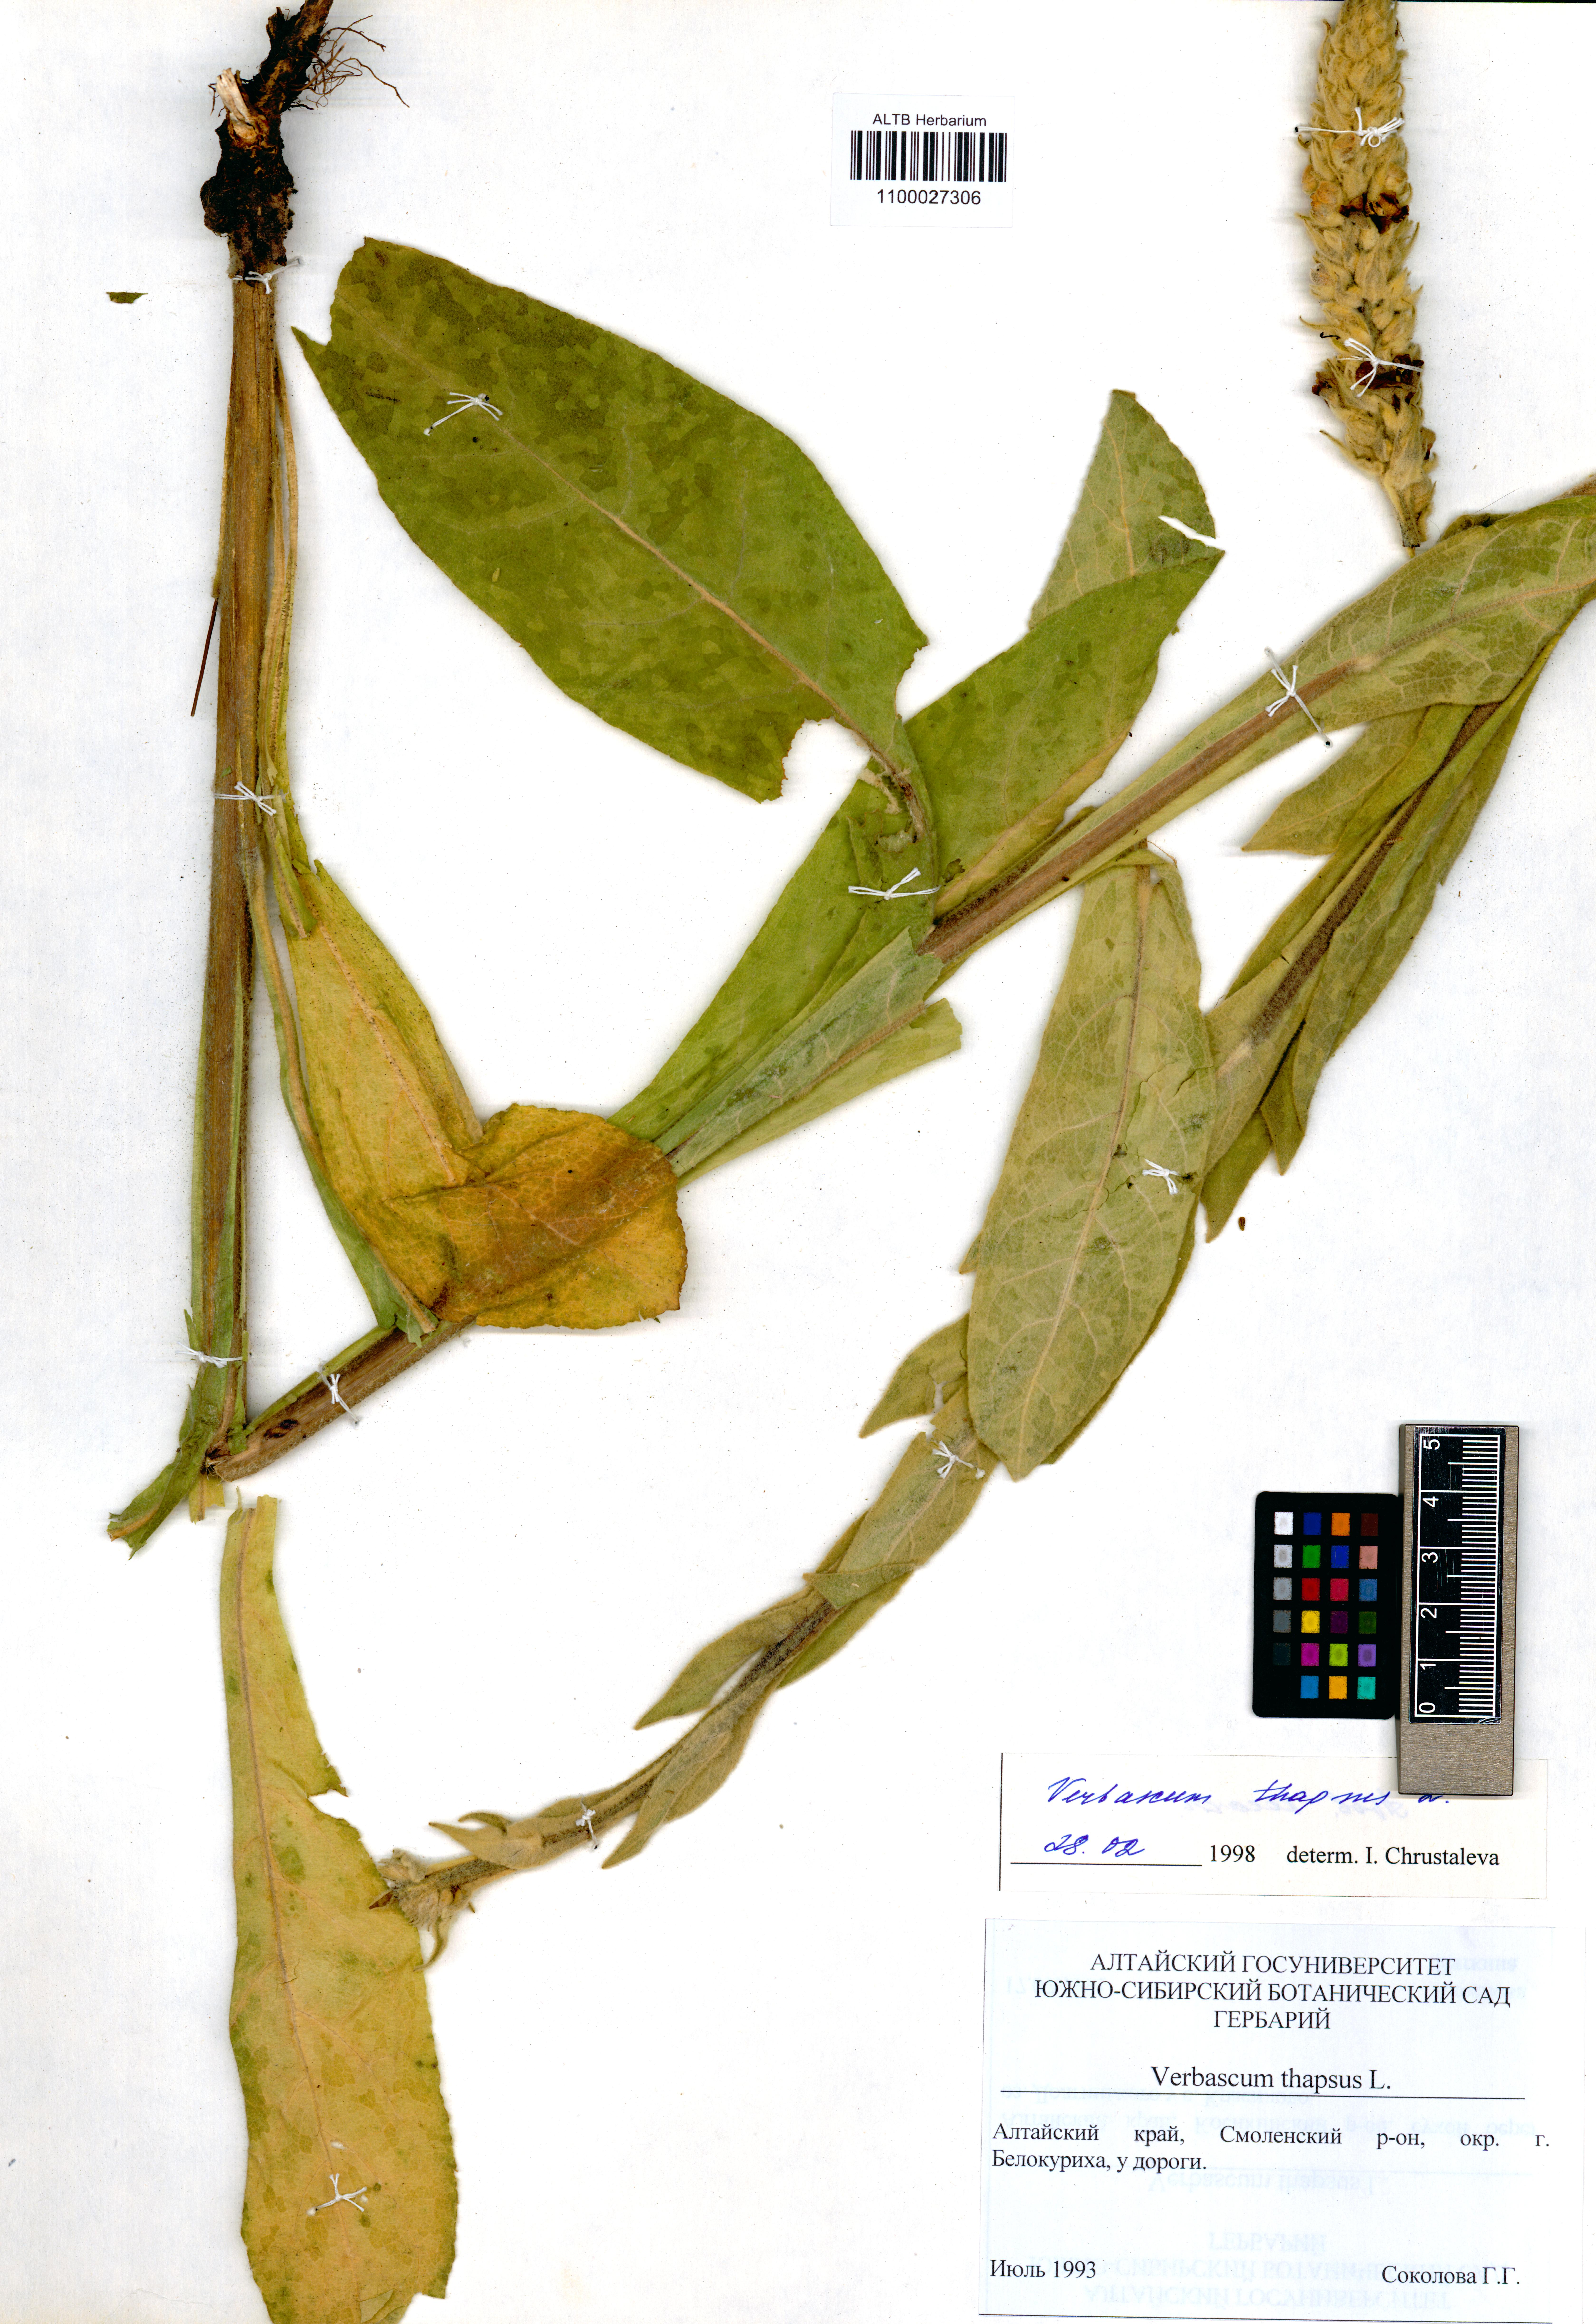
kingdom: Plantae
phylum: Tracheophyta
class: Magnoliopsida
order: Lamiales
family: Scrophulariaceae
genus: Verbascum
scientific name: Verbascum thapsus
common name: Common mullein
